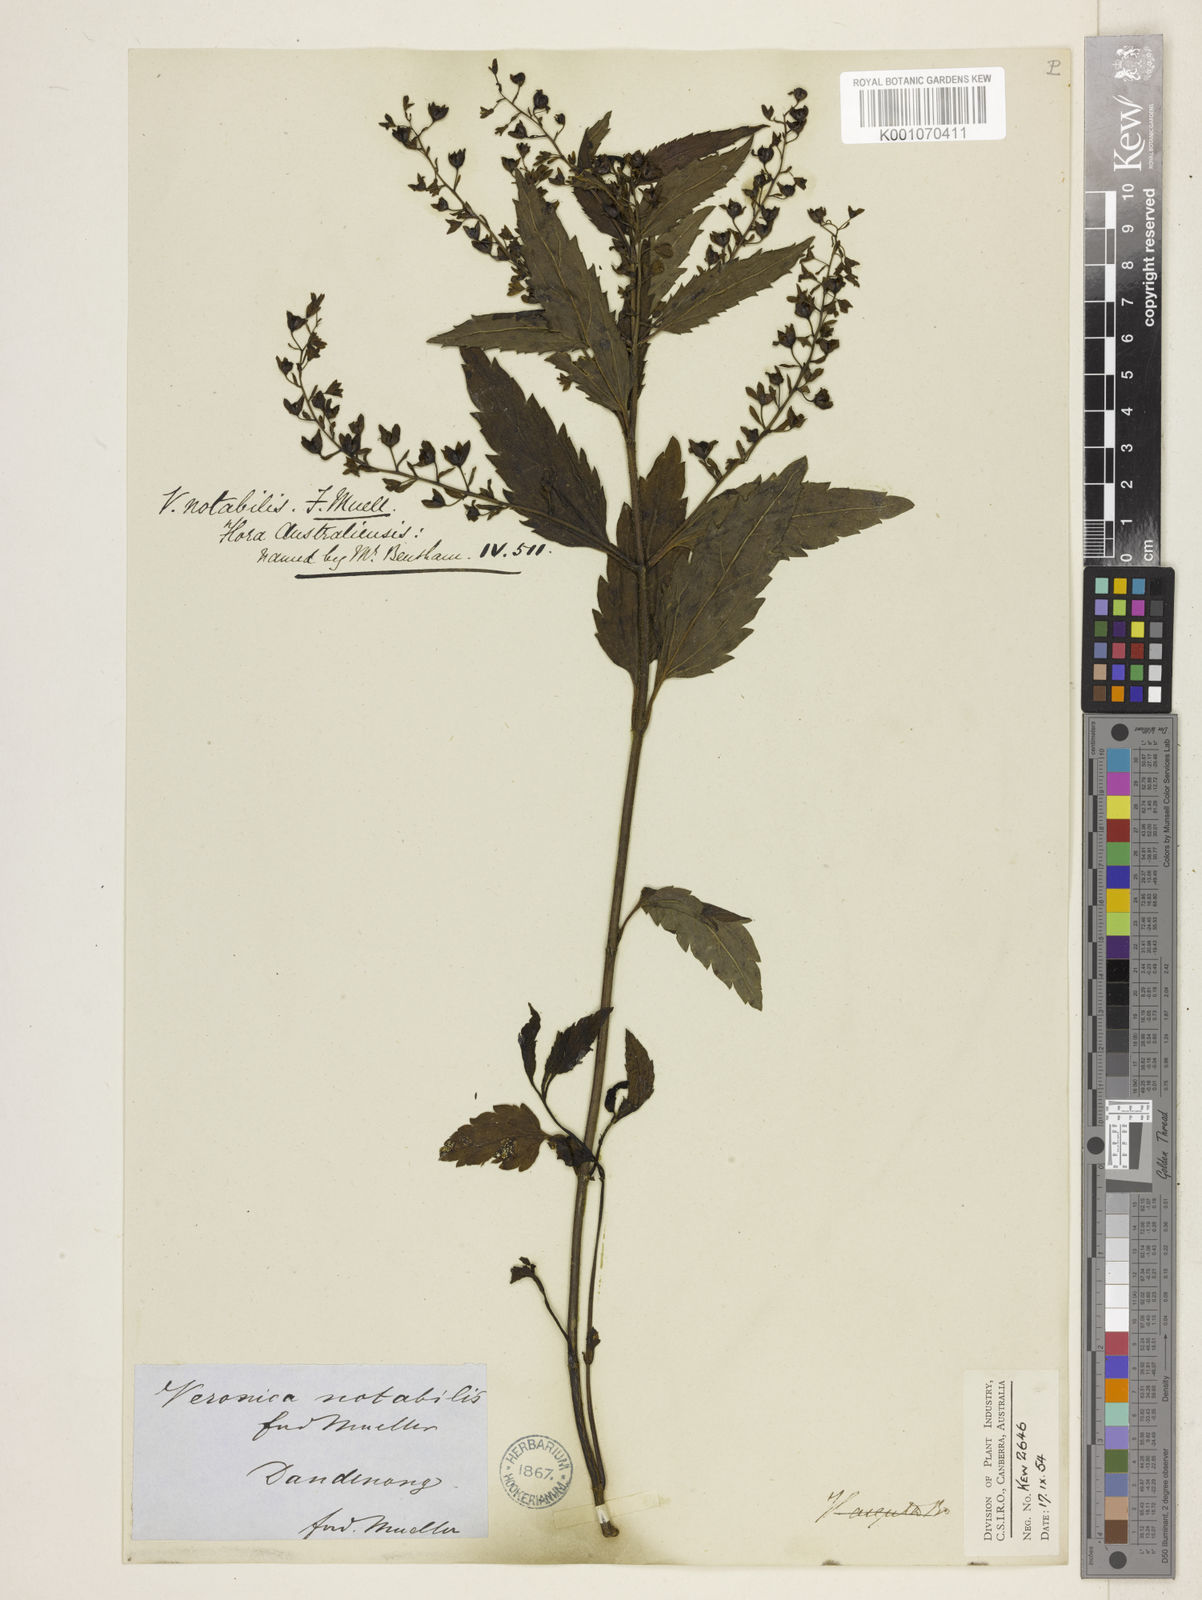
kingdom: Plantae
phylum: Tracheophyta
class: Magnoliopsida
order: Lamiales
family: Plantaginaceae
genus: Veronica
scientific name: Veronica notabilis
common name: Forest speedwell
